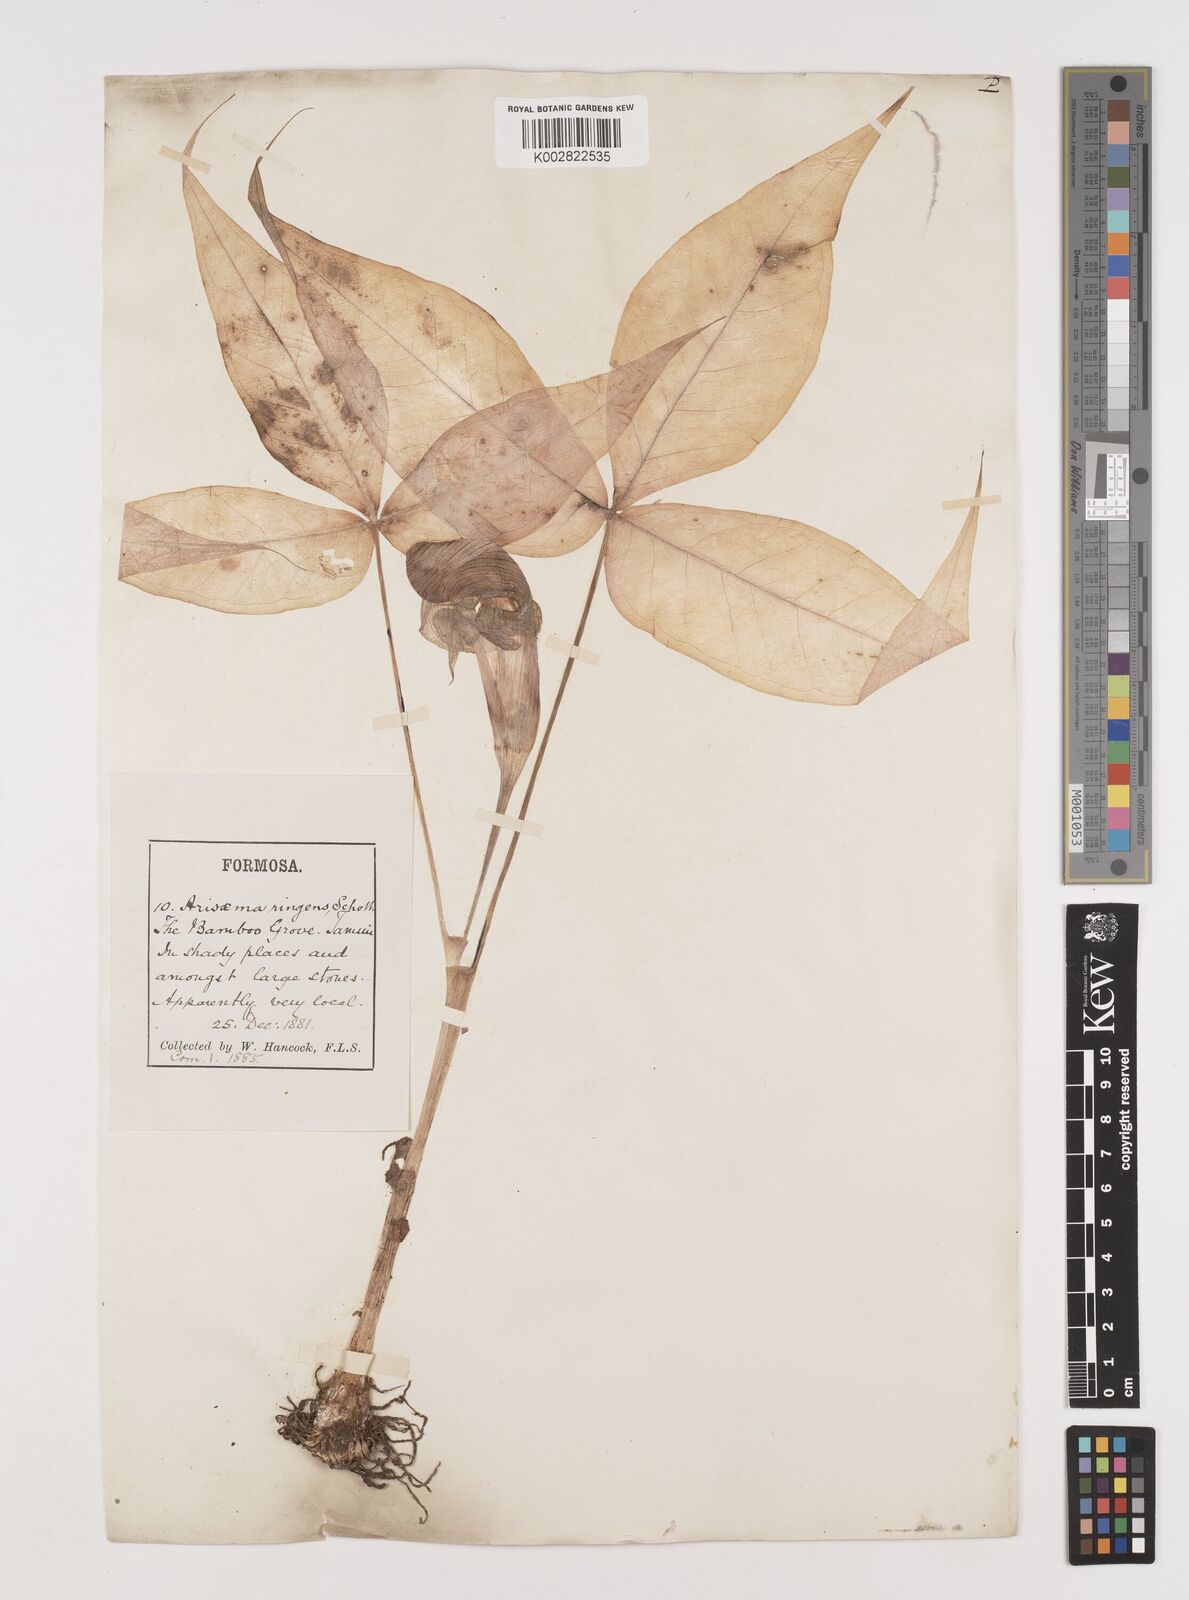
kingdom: Plantae
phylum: Tracheophyta
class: Liliopsida
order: Alismatales
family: Araceae
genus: Arisaema
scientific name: Arisaema ringens
